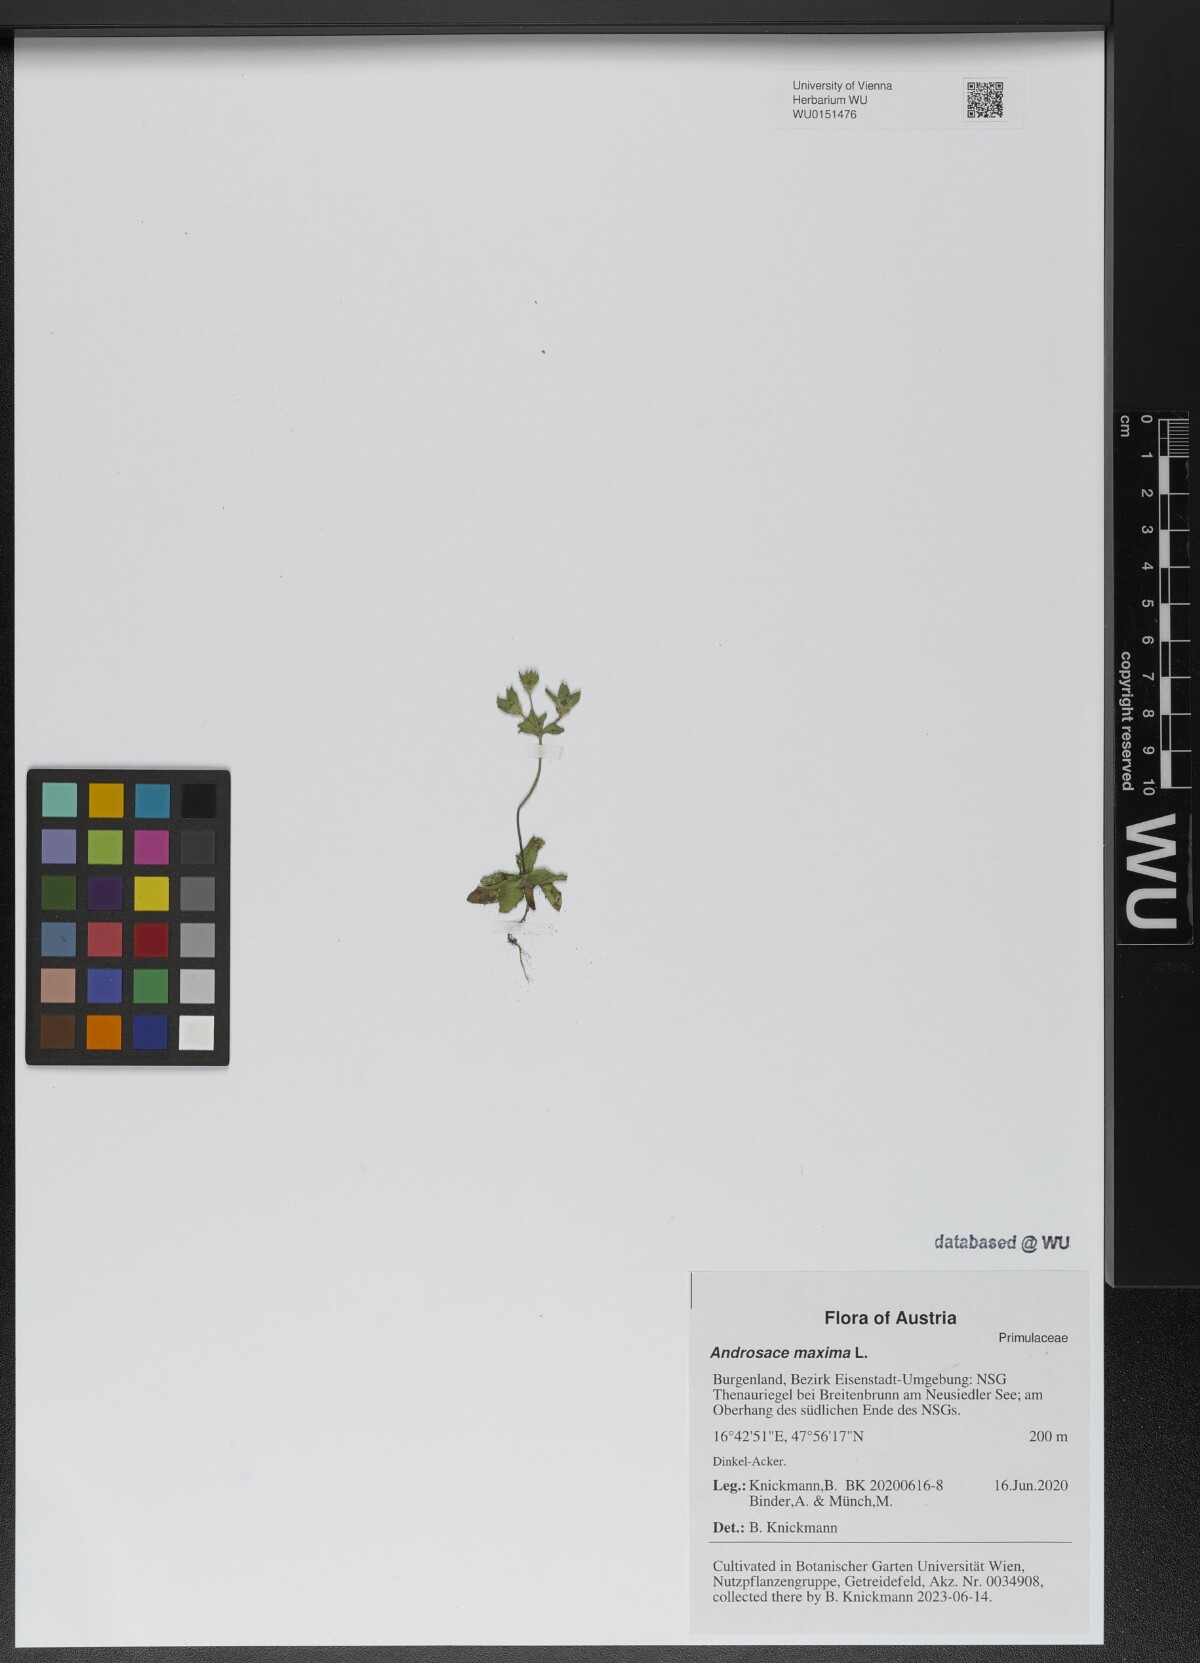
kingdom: Plantae
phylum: Tracheophyta
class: Magnoliopsida
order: Ericales
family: Primulaceae
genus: Androsace
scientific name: Androsace maxima
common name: Annual androsace
